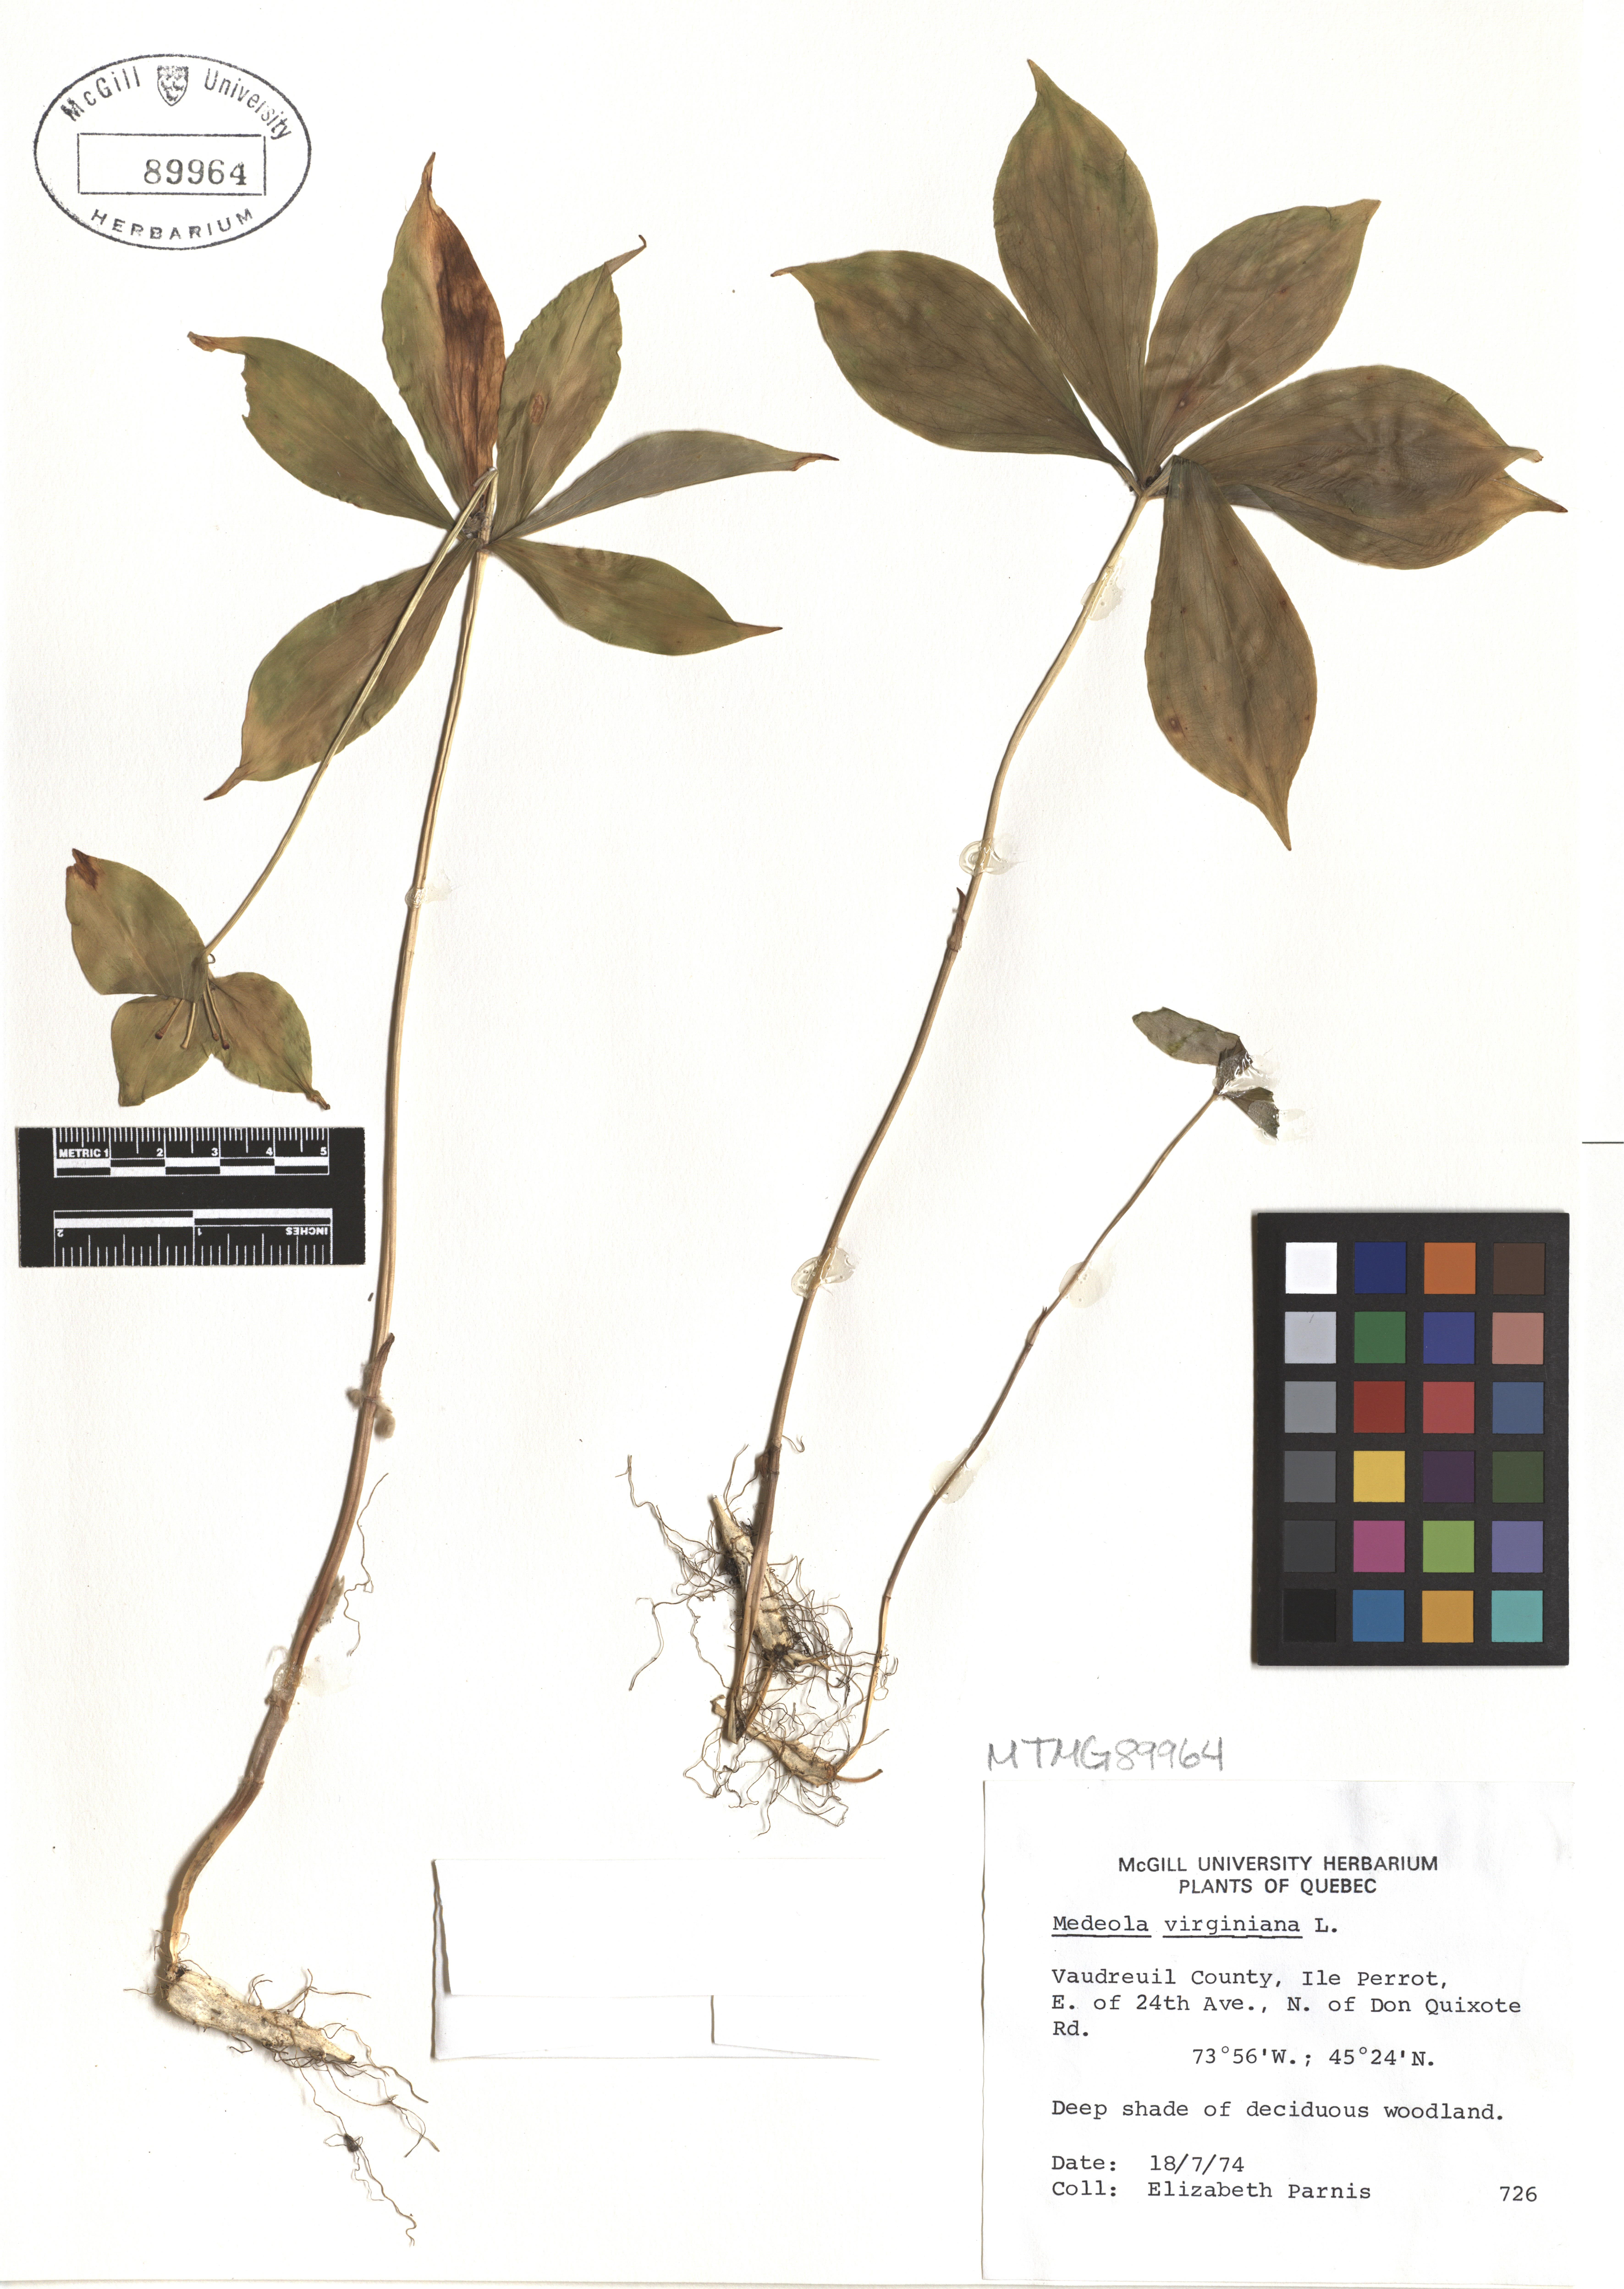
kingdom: Plantae
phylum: Tracheophyta
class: Liliopsida
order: Liliales
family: Liliaceae
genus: Medeola
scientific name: Medeola virginiana
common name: Indian cucumber-root
